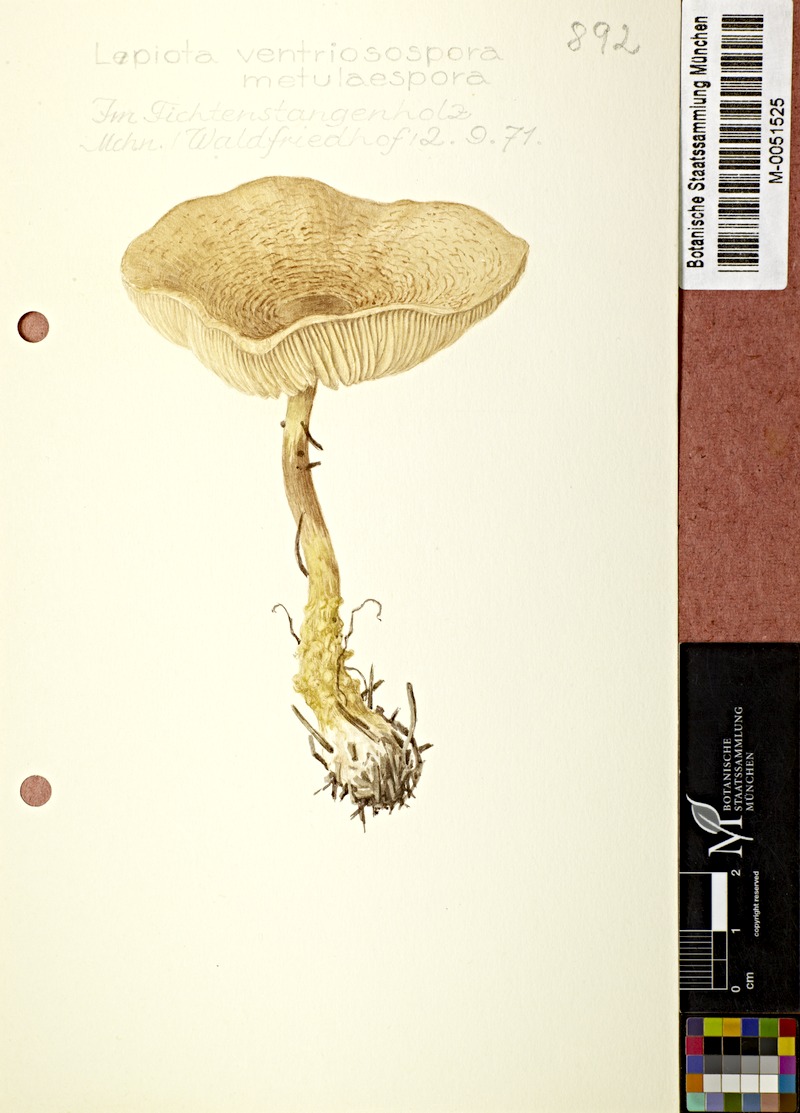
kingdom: Fungi
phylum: Basidiomycota
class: Agaricomycetes
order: Agaricales
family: Agaricaceae
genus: Lepiota
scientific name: Lepiota magnispora
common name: Yellowfoot dapperling
